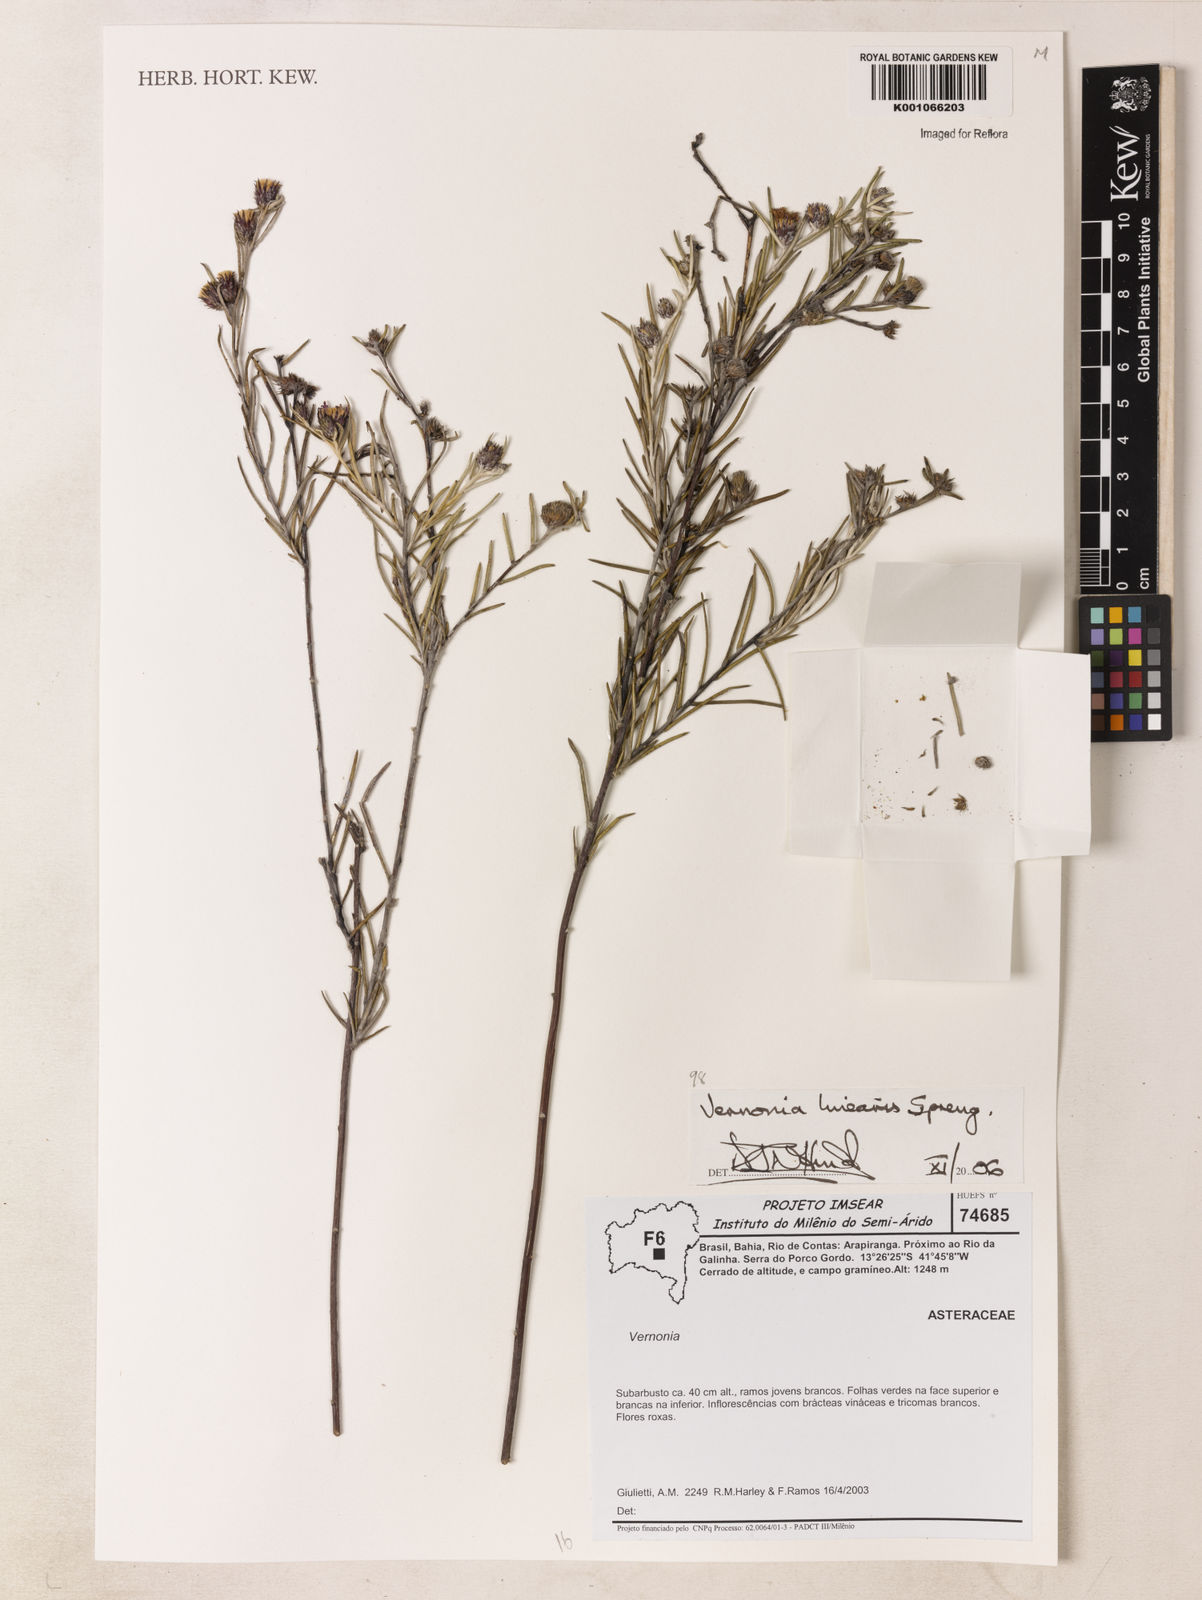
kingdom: Plantae
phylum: Tracheophyta
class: Magnoliopsida
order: Asterales
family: Asteraceae
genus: Lessingianthus
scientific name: Lessingianthus linearis
